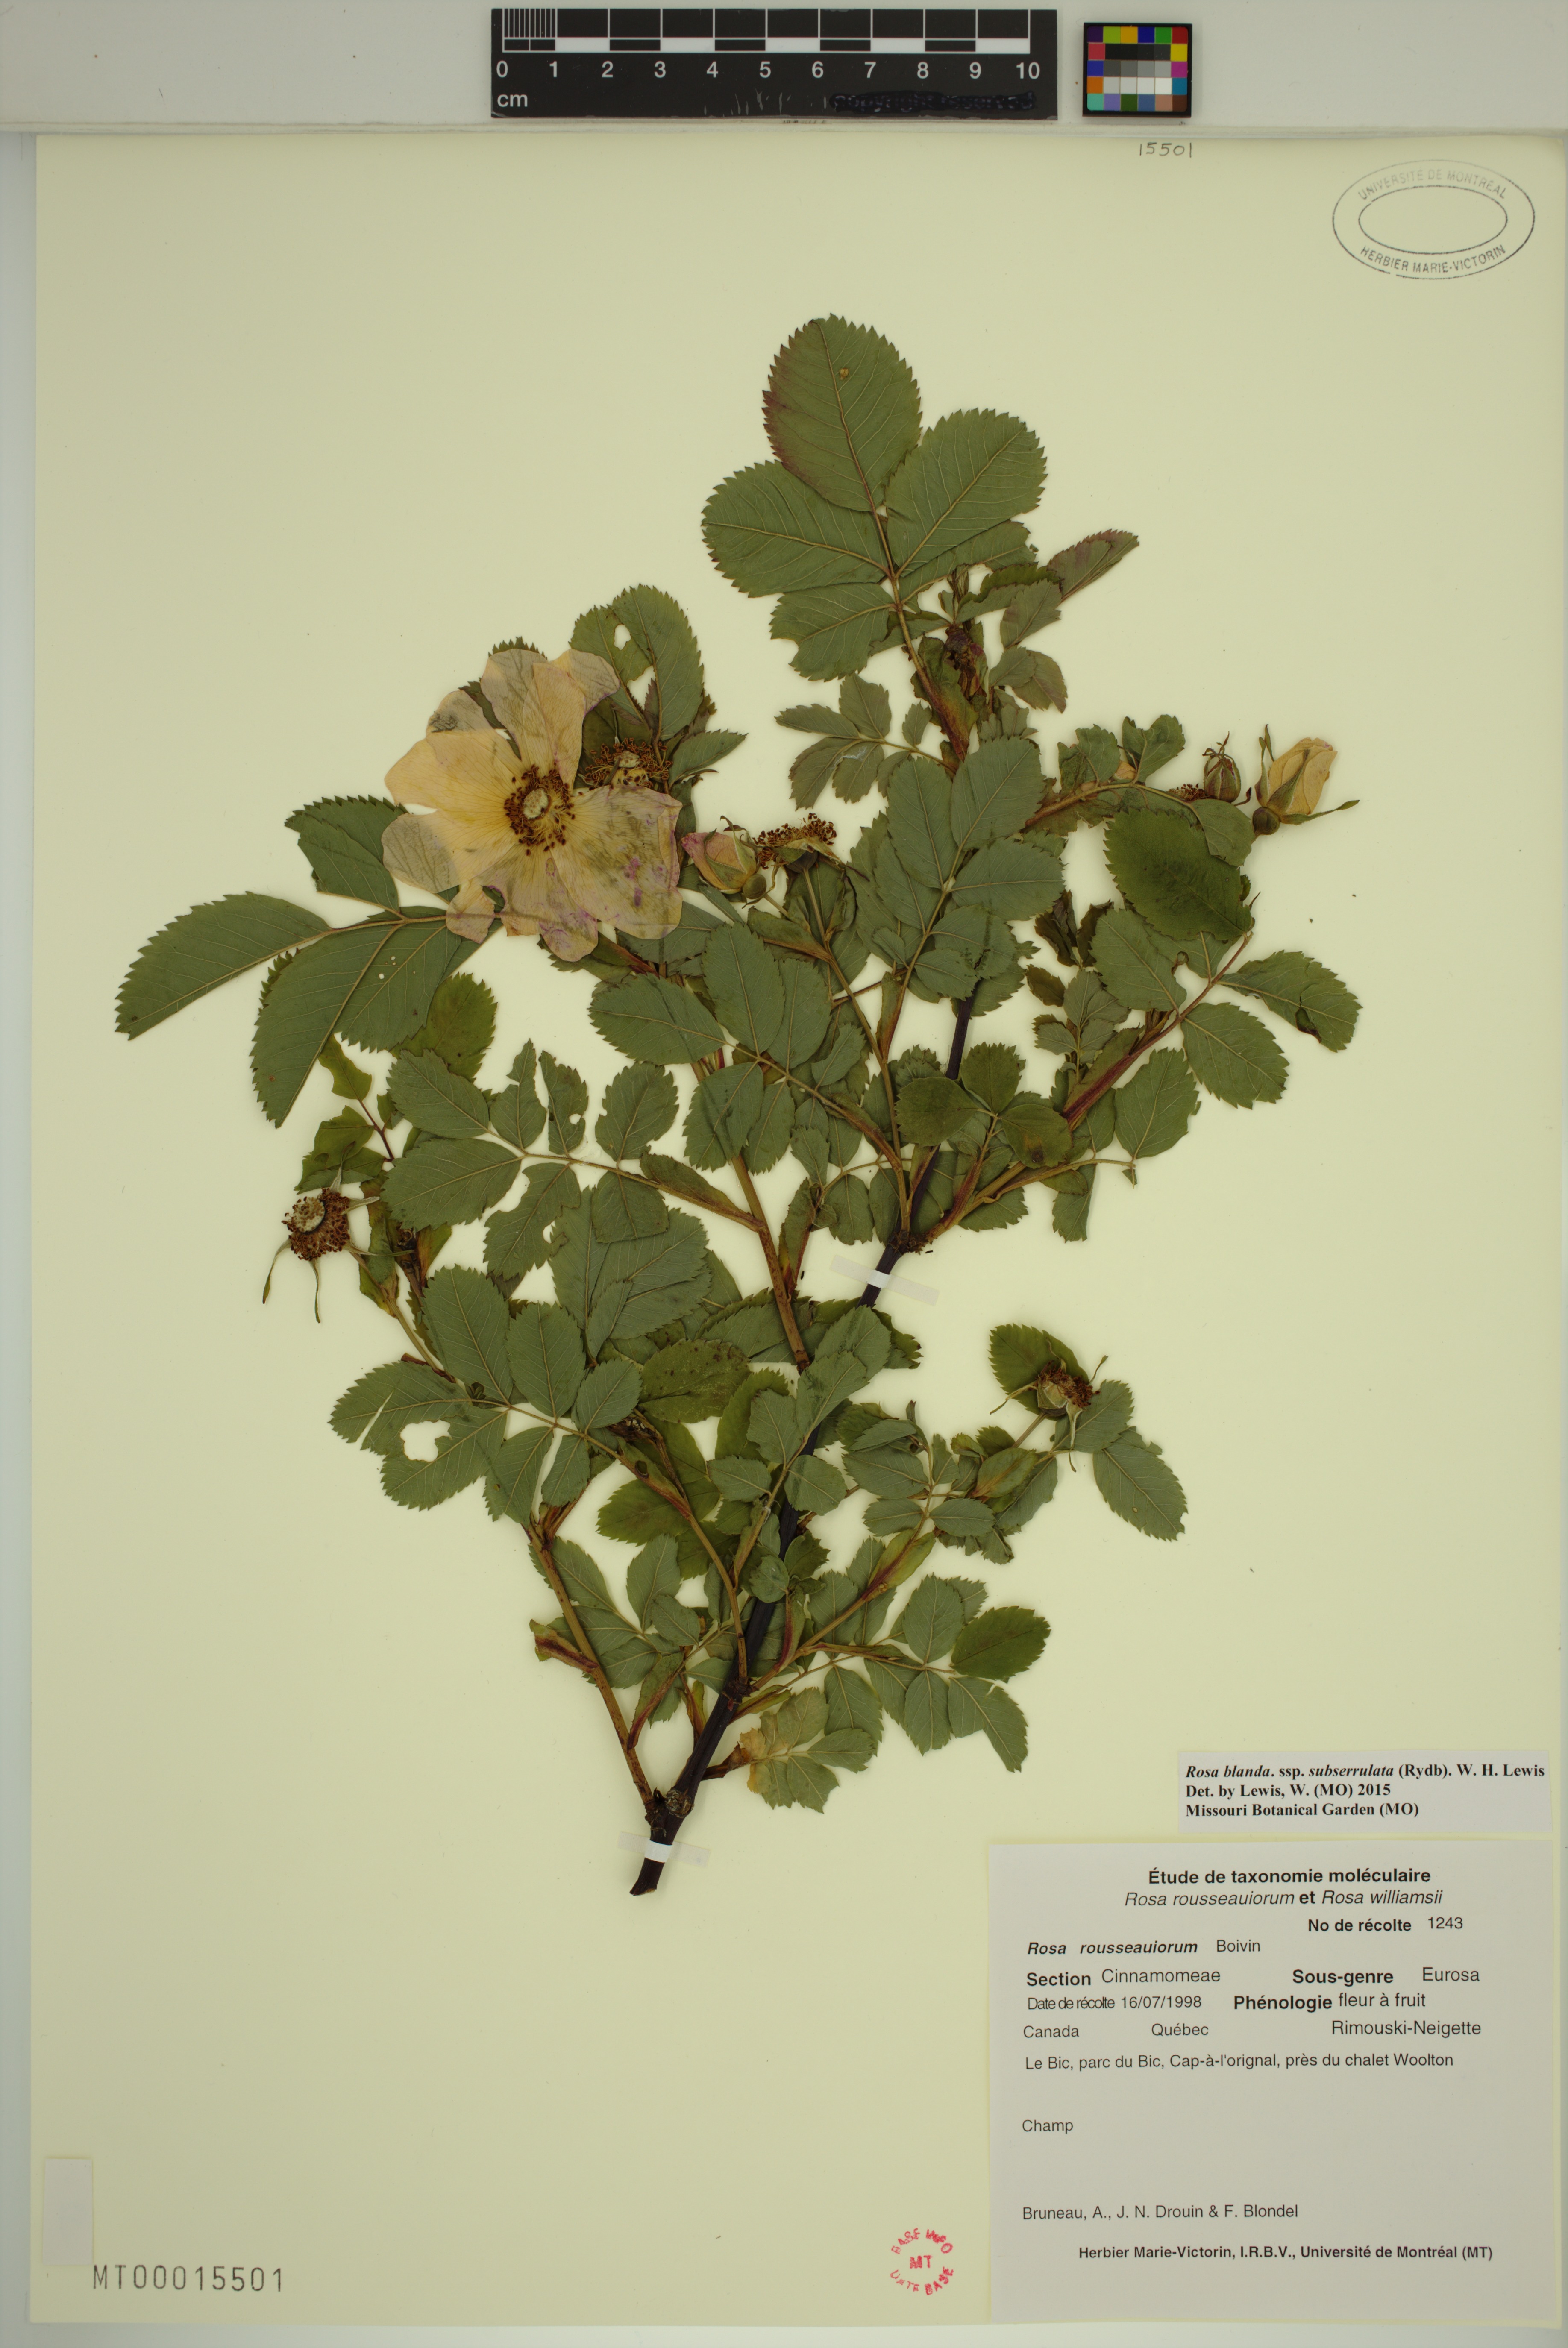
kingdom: Plantae
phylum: Tracheophyta
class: Magnoliopsida
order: Rosales
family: Rosaceae
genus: Rosa
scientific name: Rosa blanda
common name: Smooth rose
